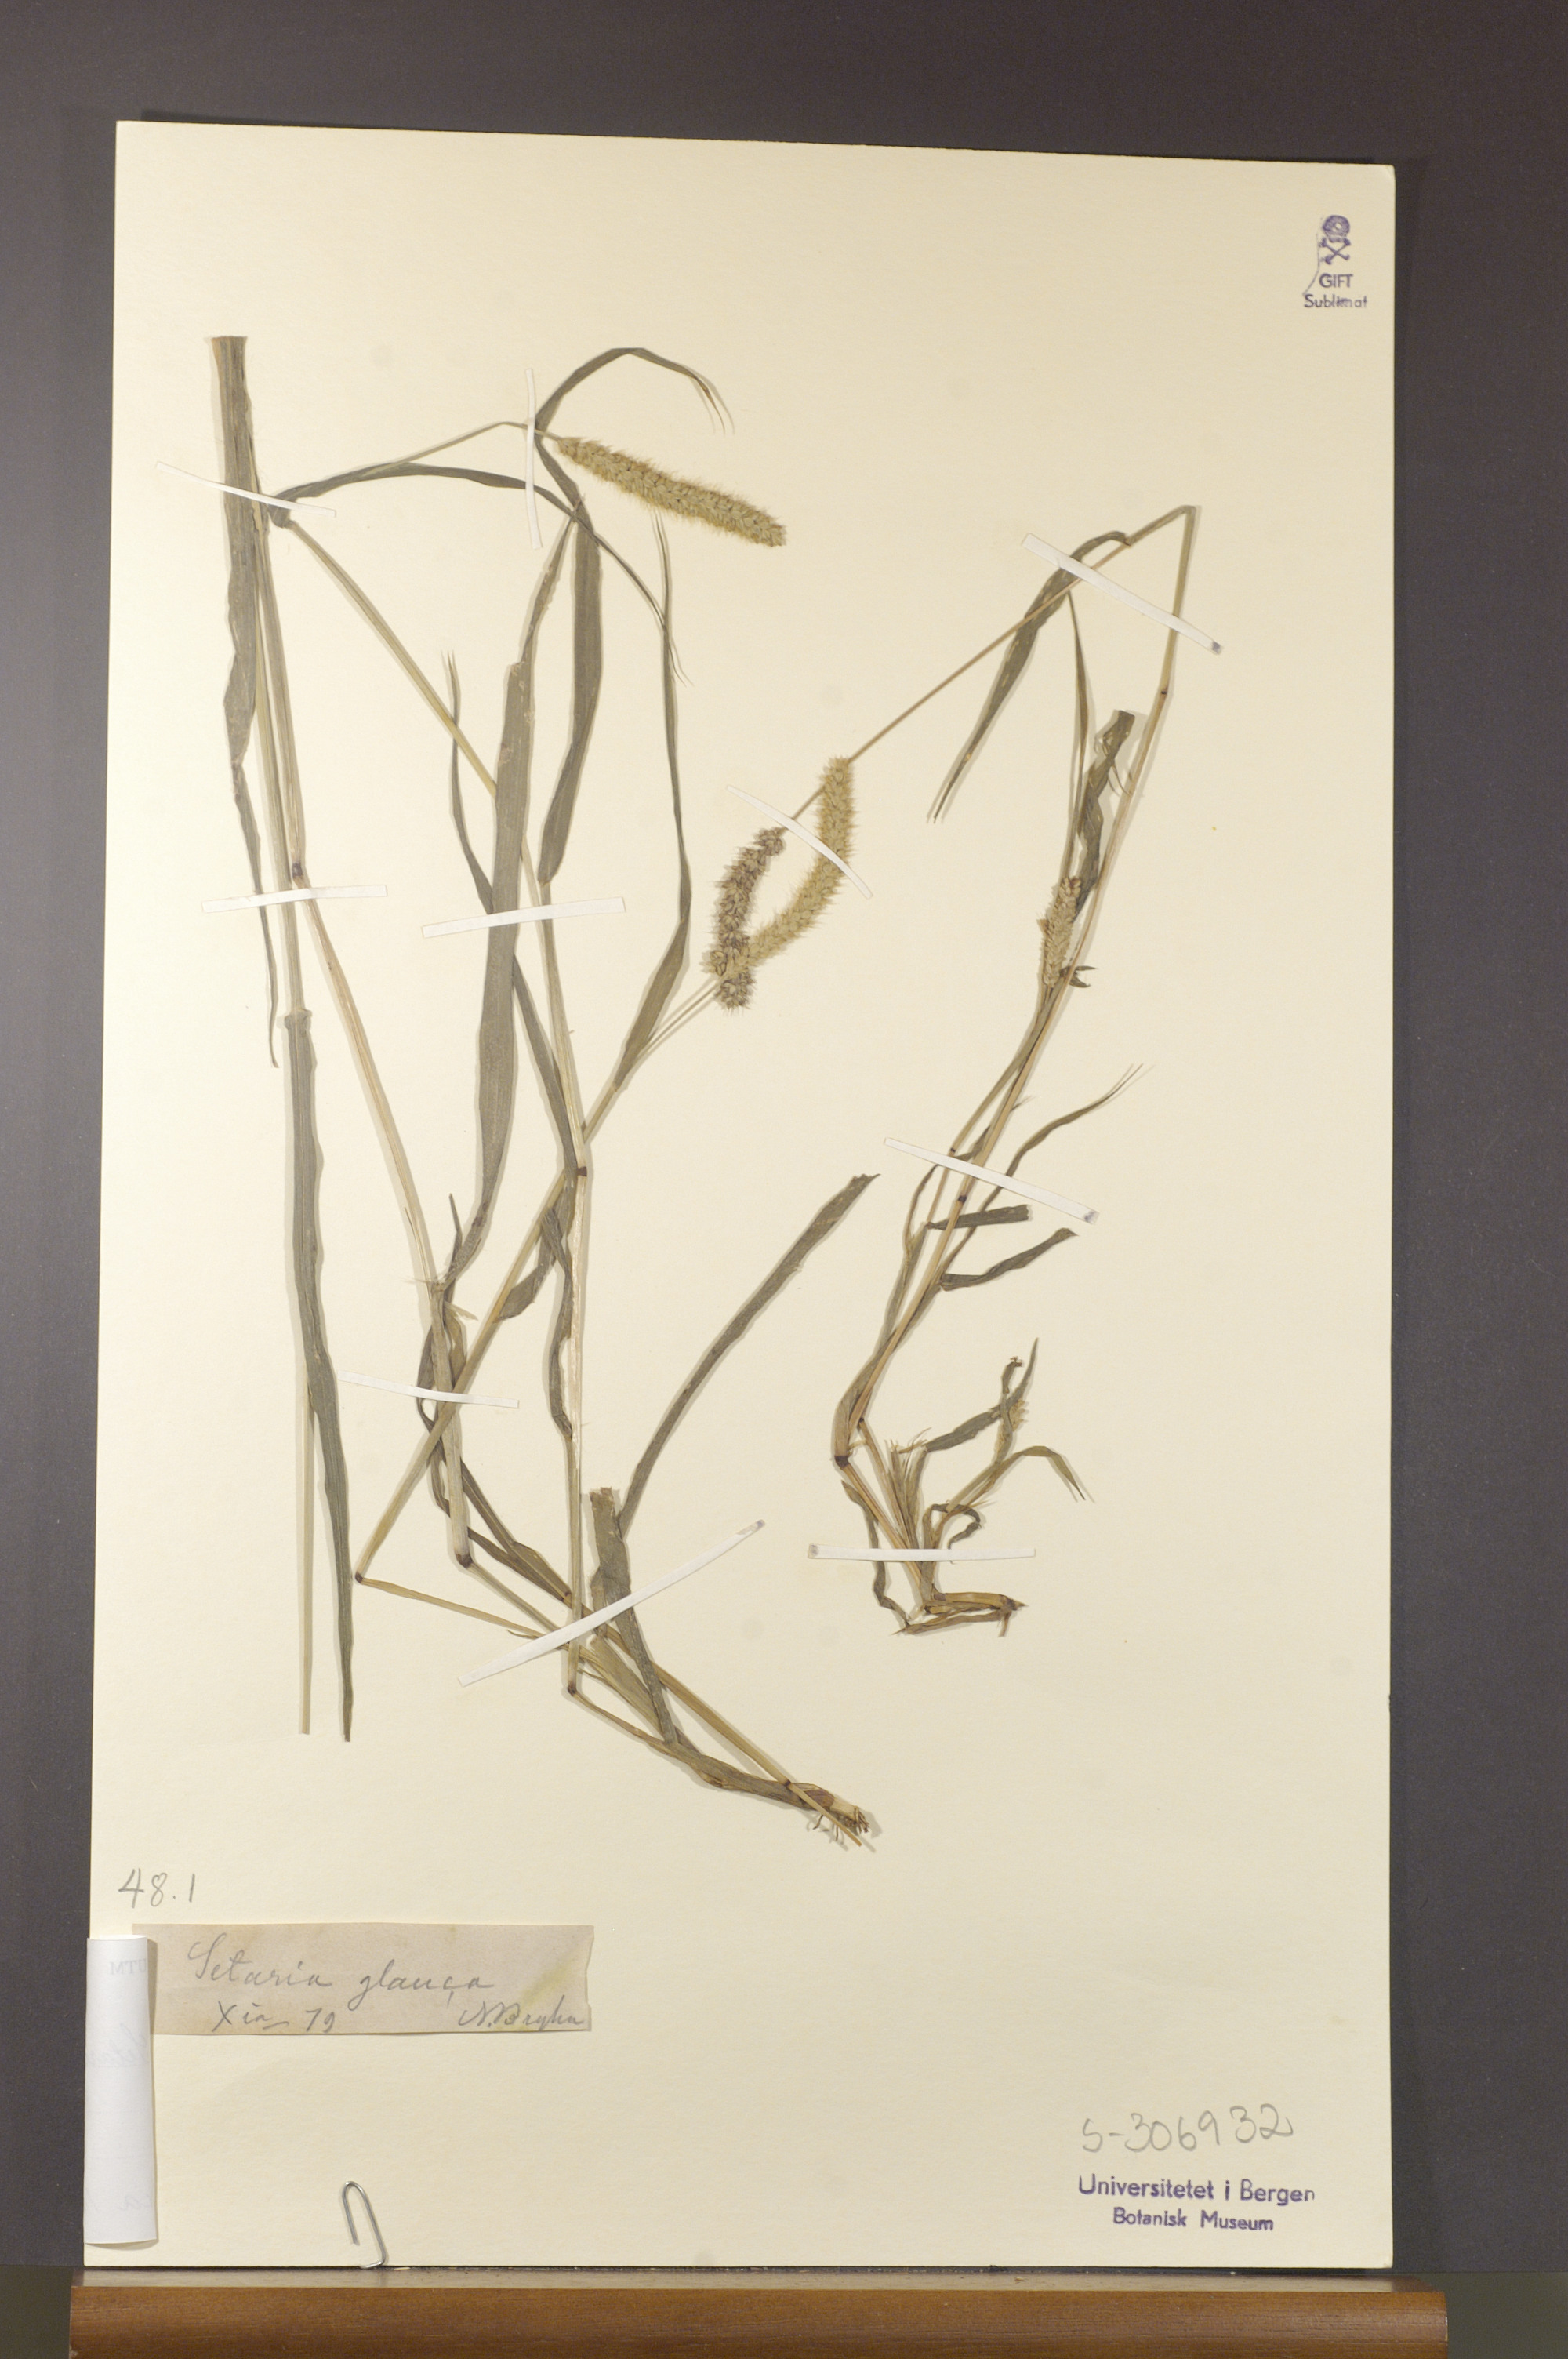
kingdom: Plantae
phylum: Tracheophyta
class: Liliopsida
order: Poales
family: Poaceae
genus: Setaria
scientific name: Setaria pumila
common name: Yellow bristle-grass
